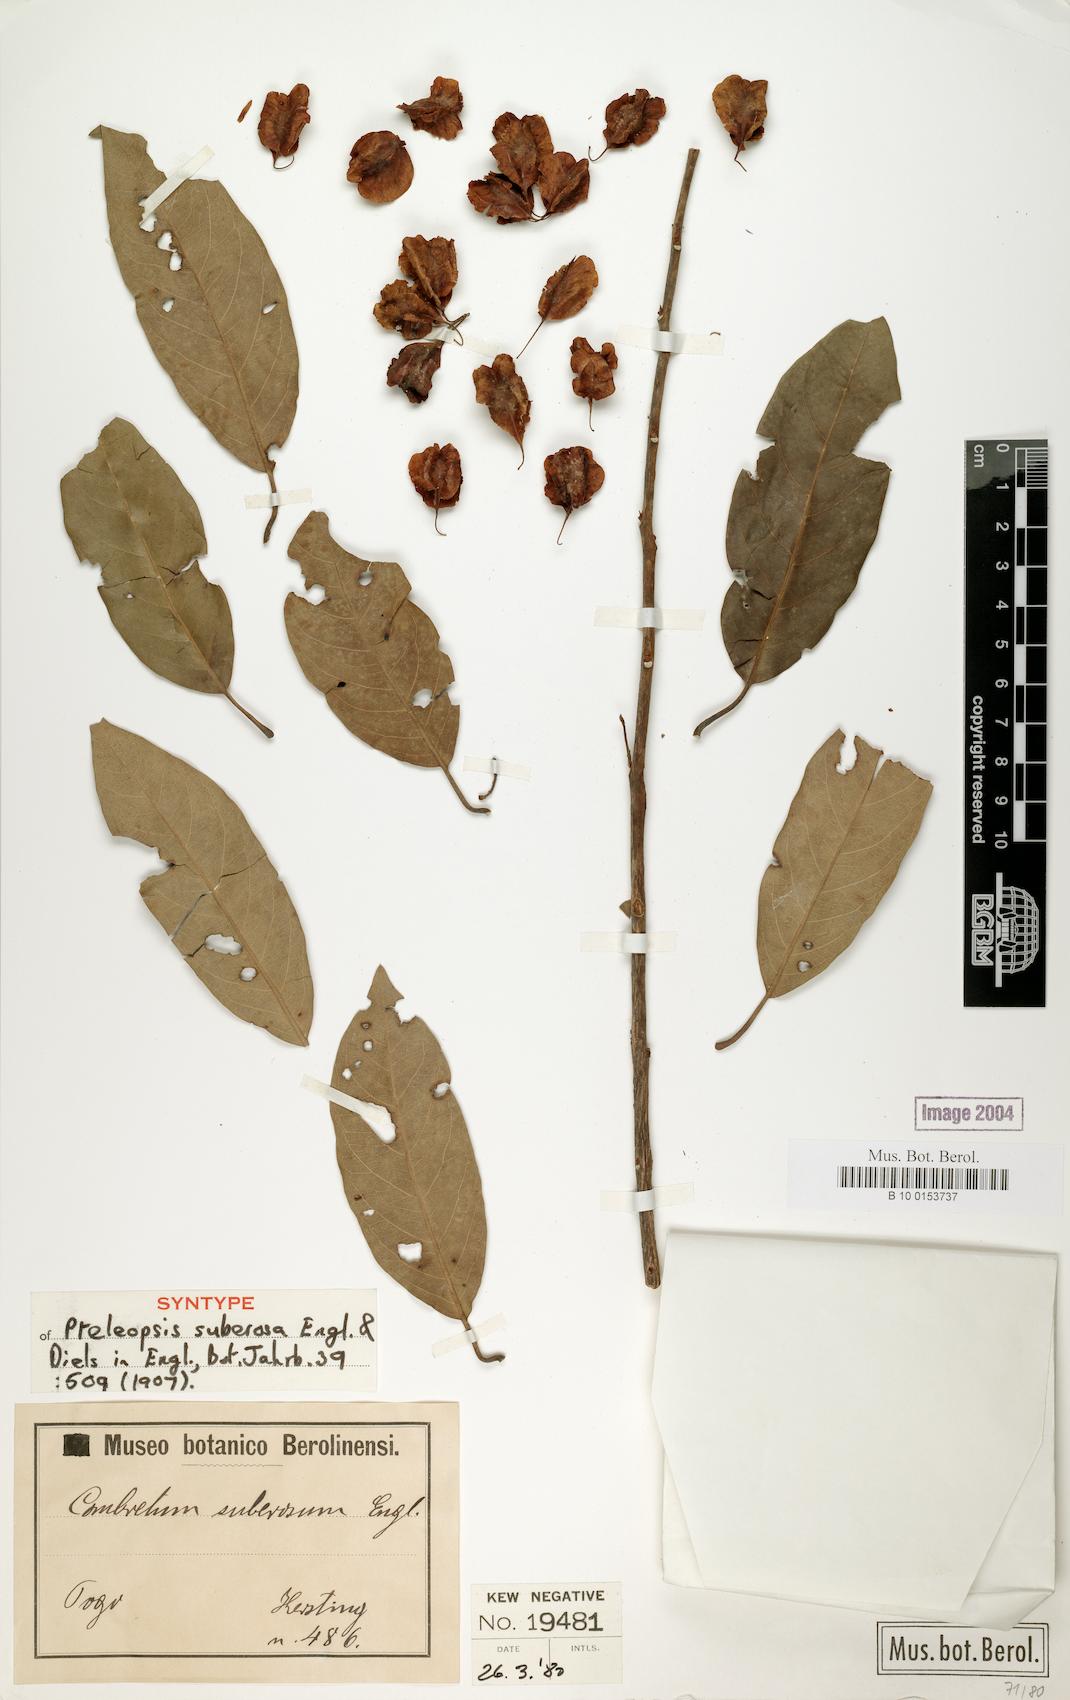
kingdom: Plantae
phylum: Tracheophyta
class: Magnoliopsida
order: Myrtales
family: Combretaceae
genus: Terminalia
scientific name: Terminalia engleri
